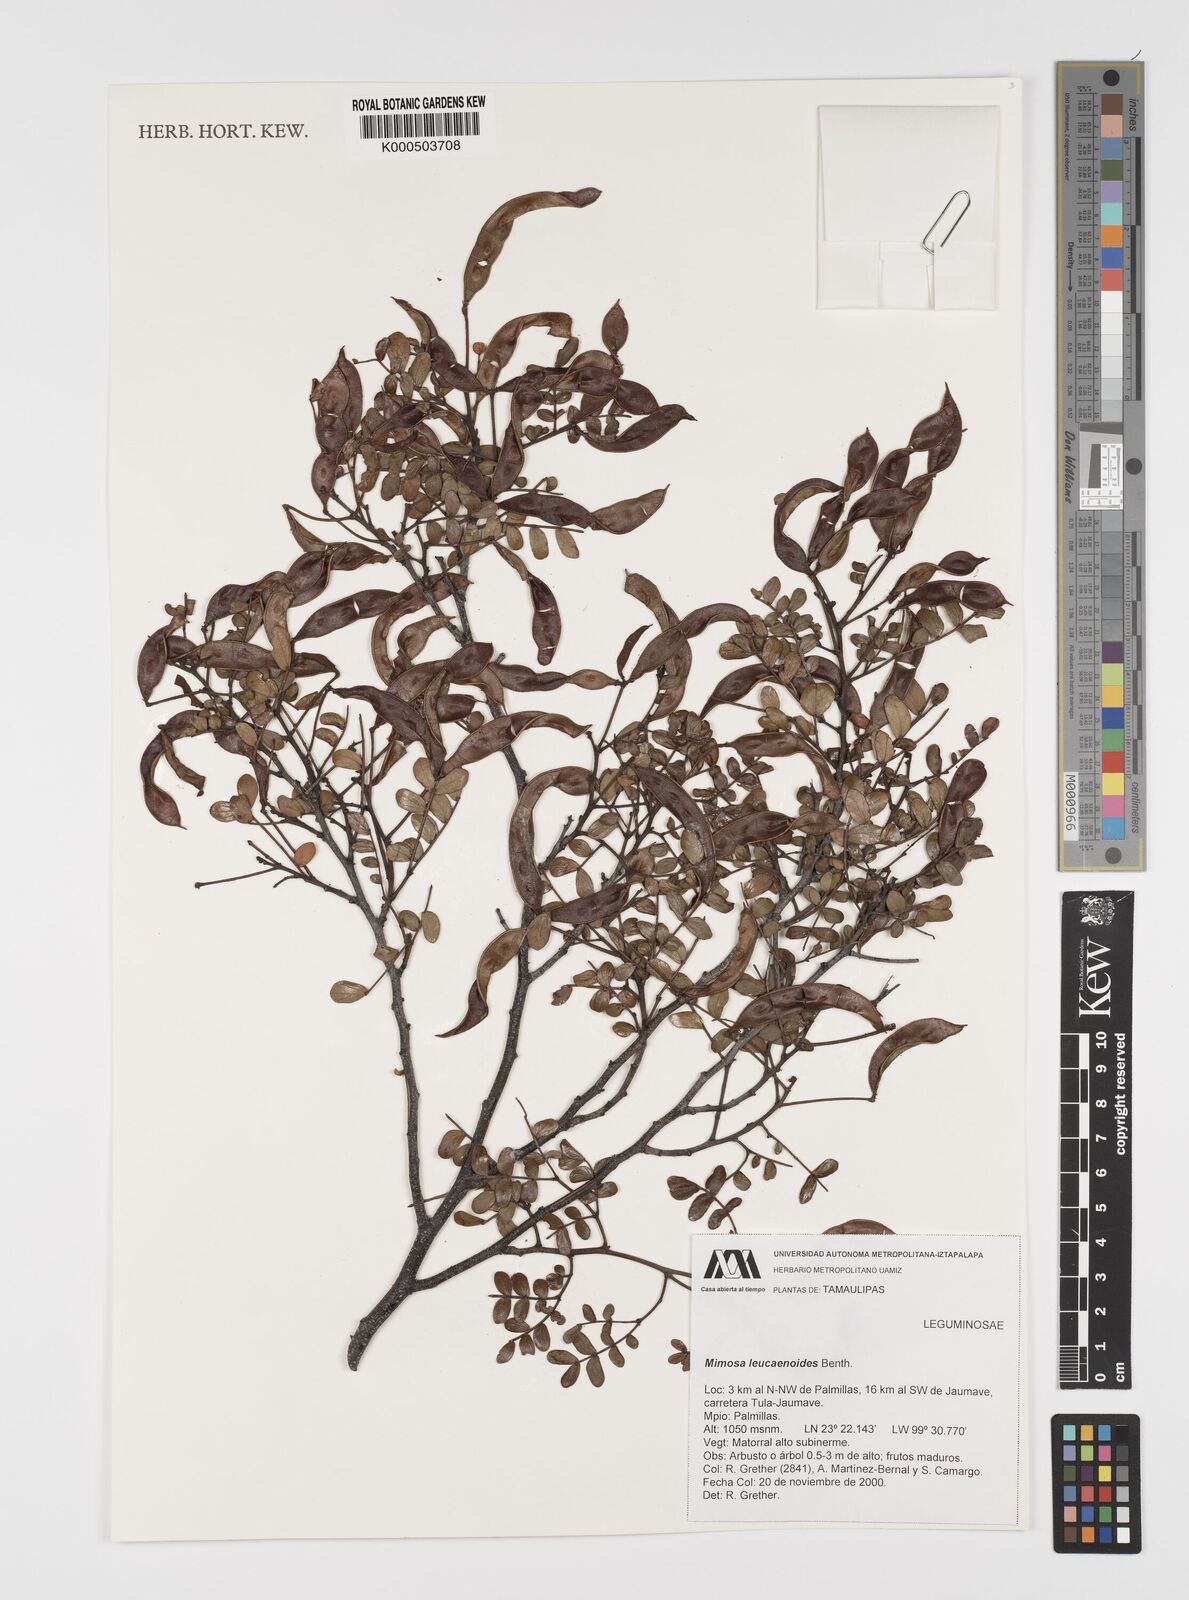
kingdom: Plantae
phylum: Tracheophyta
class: Magnoliopsida
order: Fabales
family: Fabaceae
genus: Mimosa
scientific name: Mimosa leucaenoides
